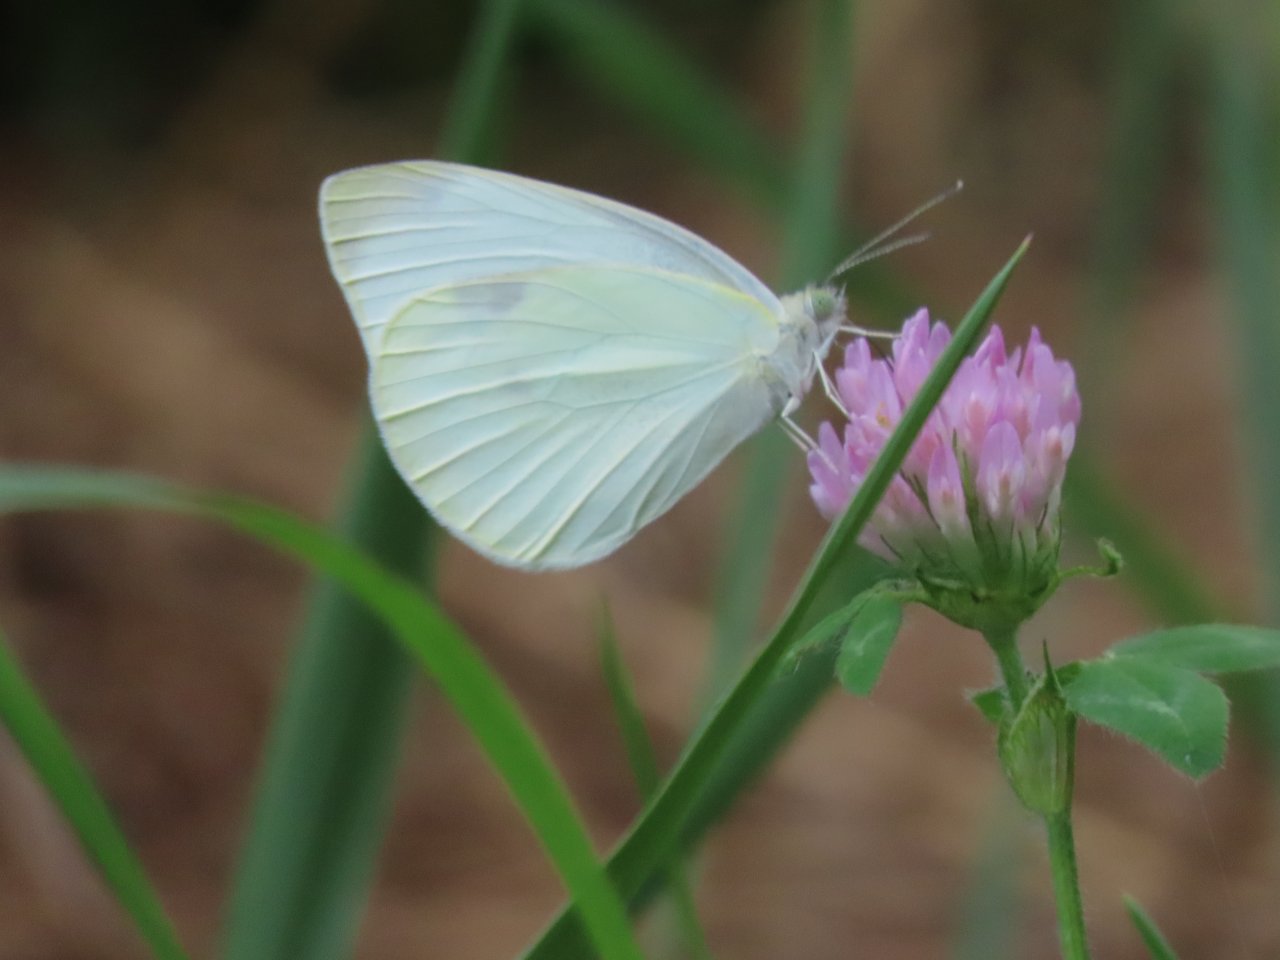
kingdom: Animalia
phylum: Arthropoda
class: Insecta
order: Lepidoptera
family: Pieridae
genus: Pieris
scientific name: Pieris rapae
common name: Cabbage White
